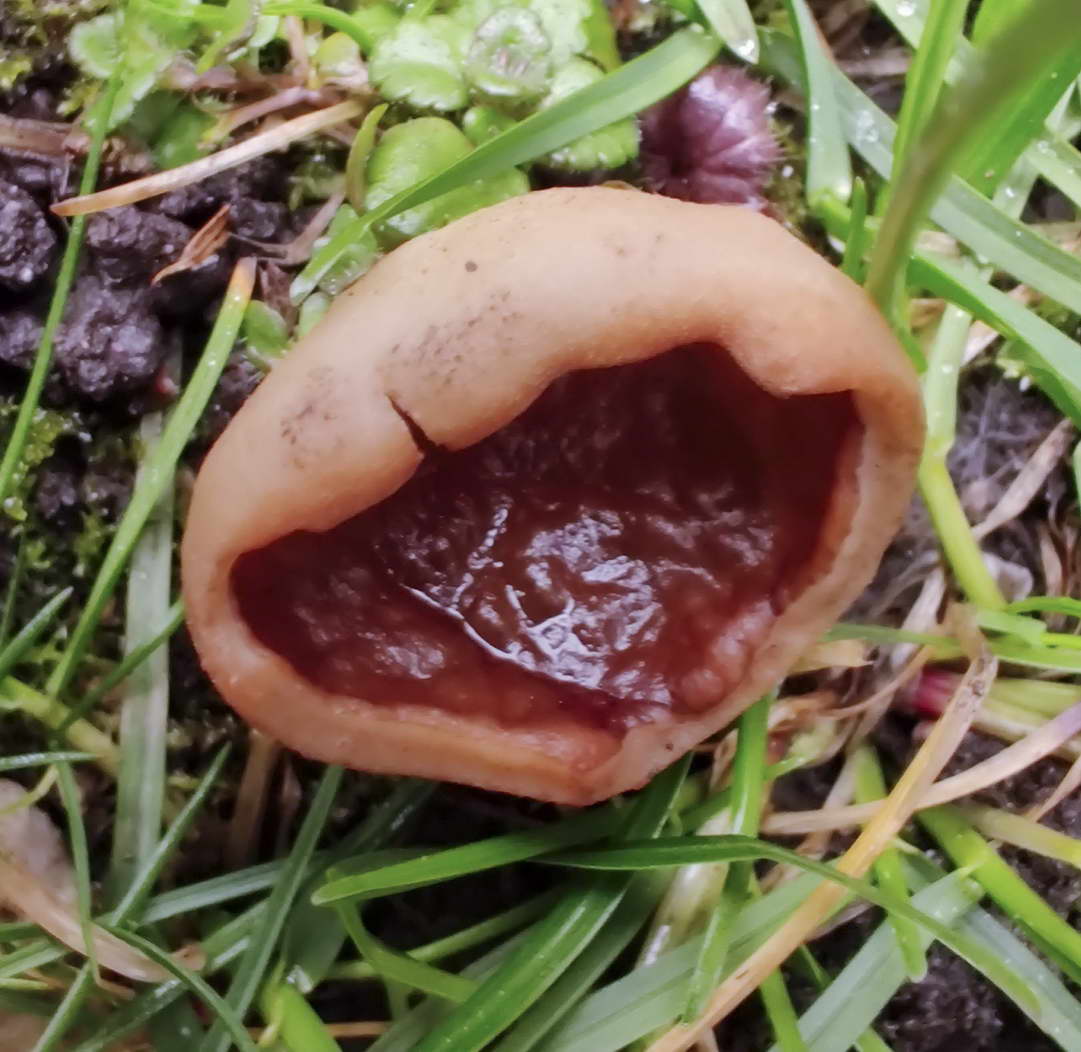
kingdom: Fungi
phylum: Ascomycota
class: Pezizomycetes
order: Pezizales
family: Morchellaceae
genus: Disciotis
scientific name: Disciotis venosa
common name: klor-bægermorkel
